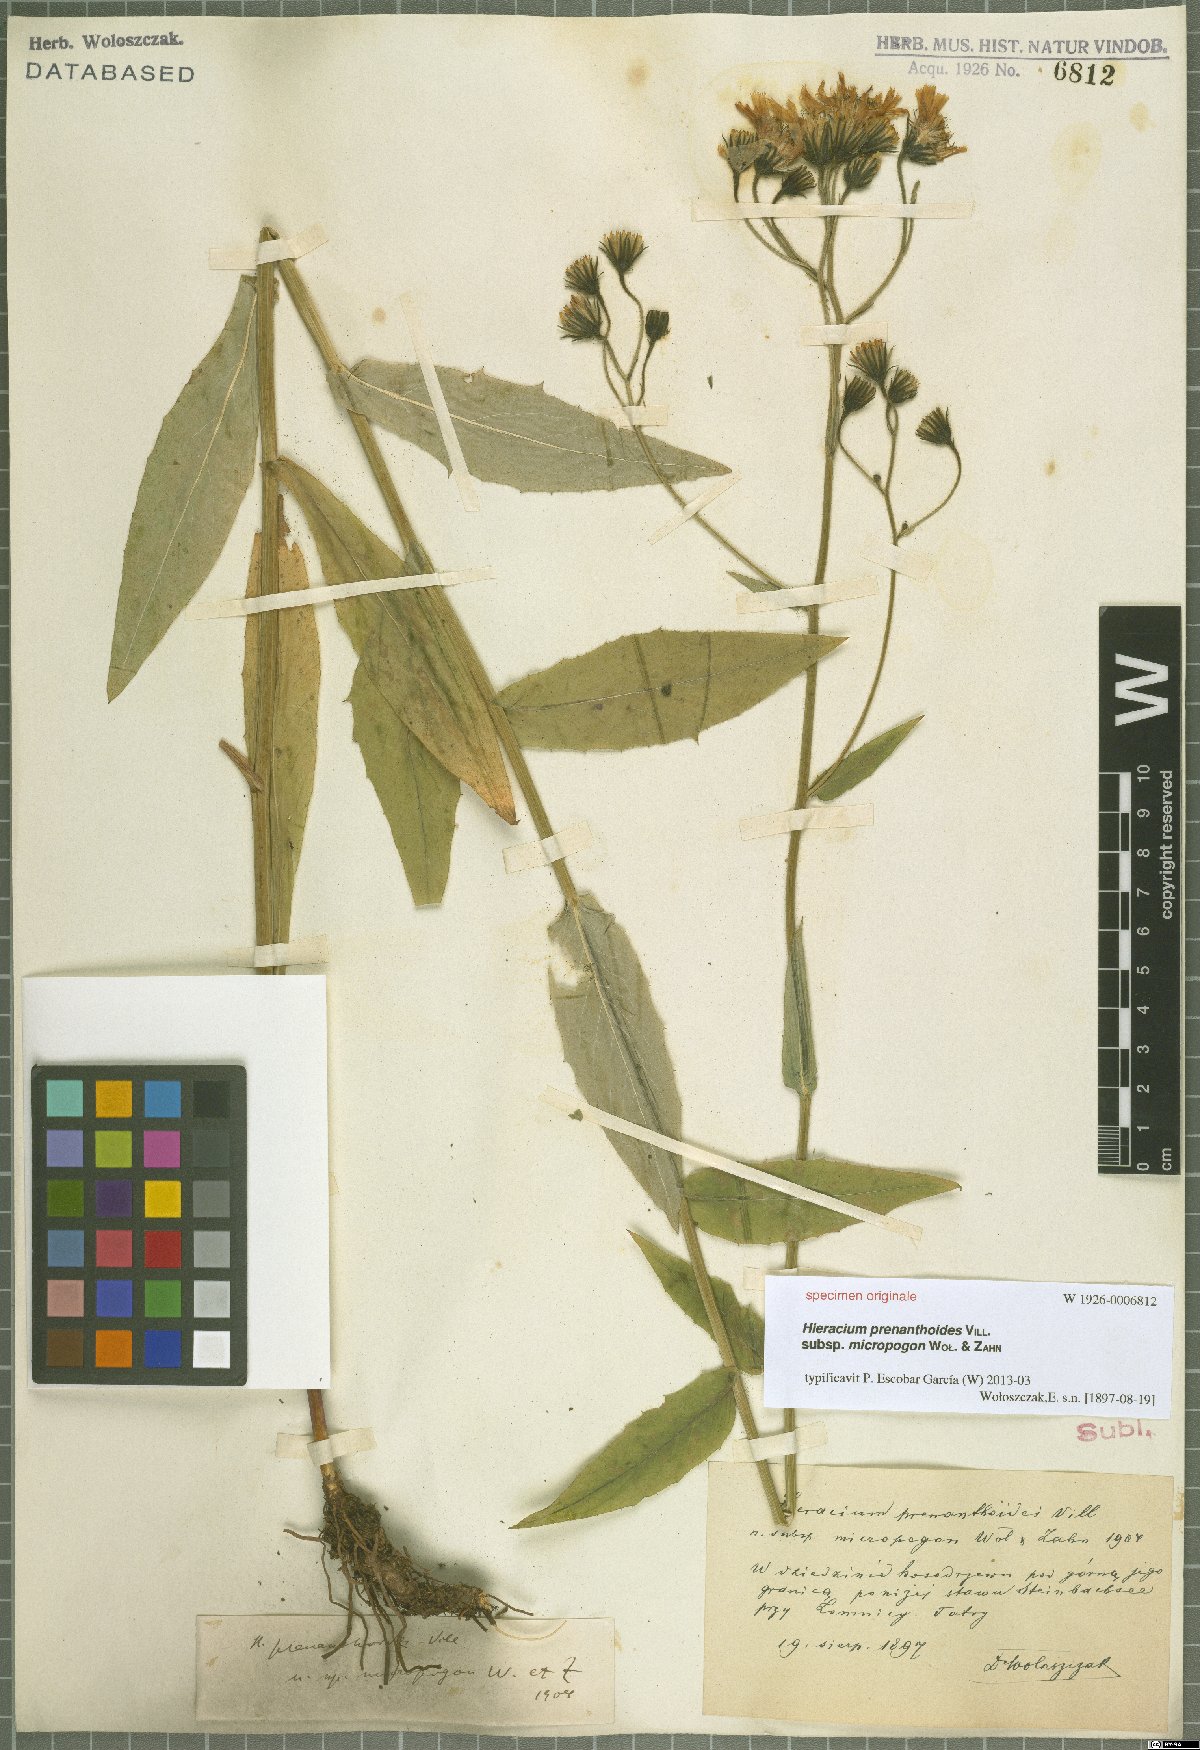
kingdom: Plantae
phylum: Tracheophyta
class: Magnoliopsida
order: Asterales
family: Asteraceae
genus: Hieracium
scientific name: Hieracium prenanthoides
